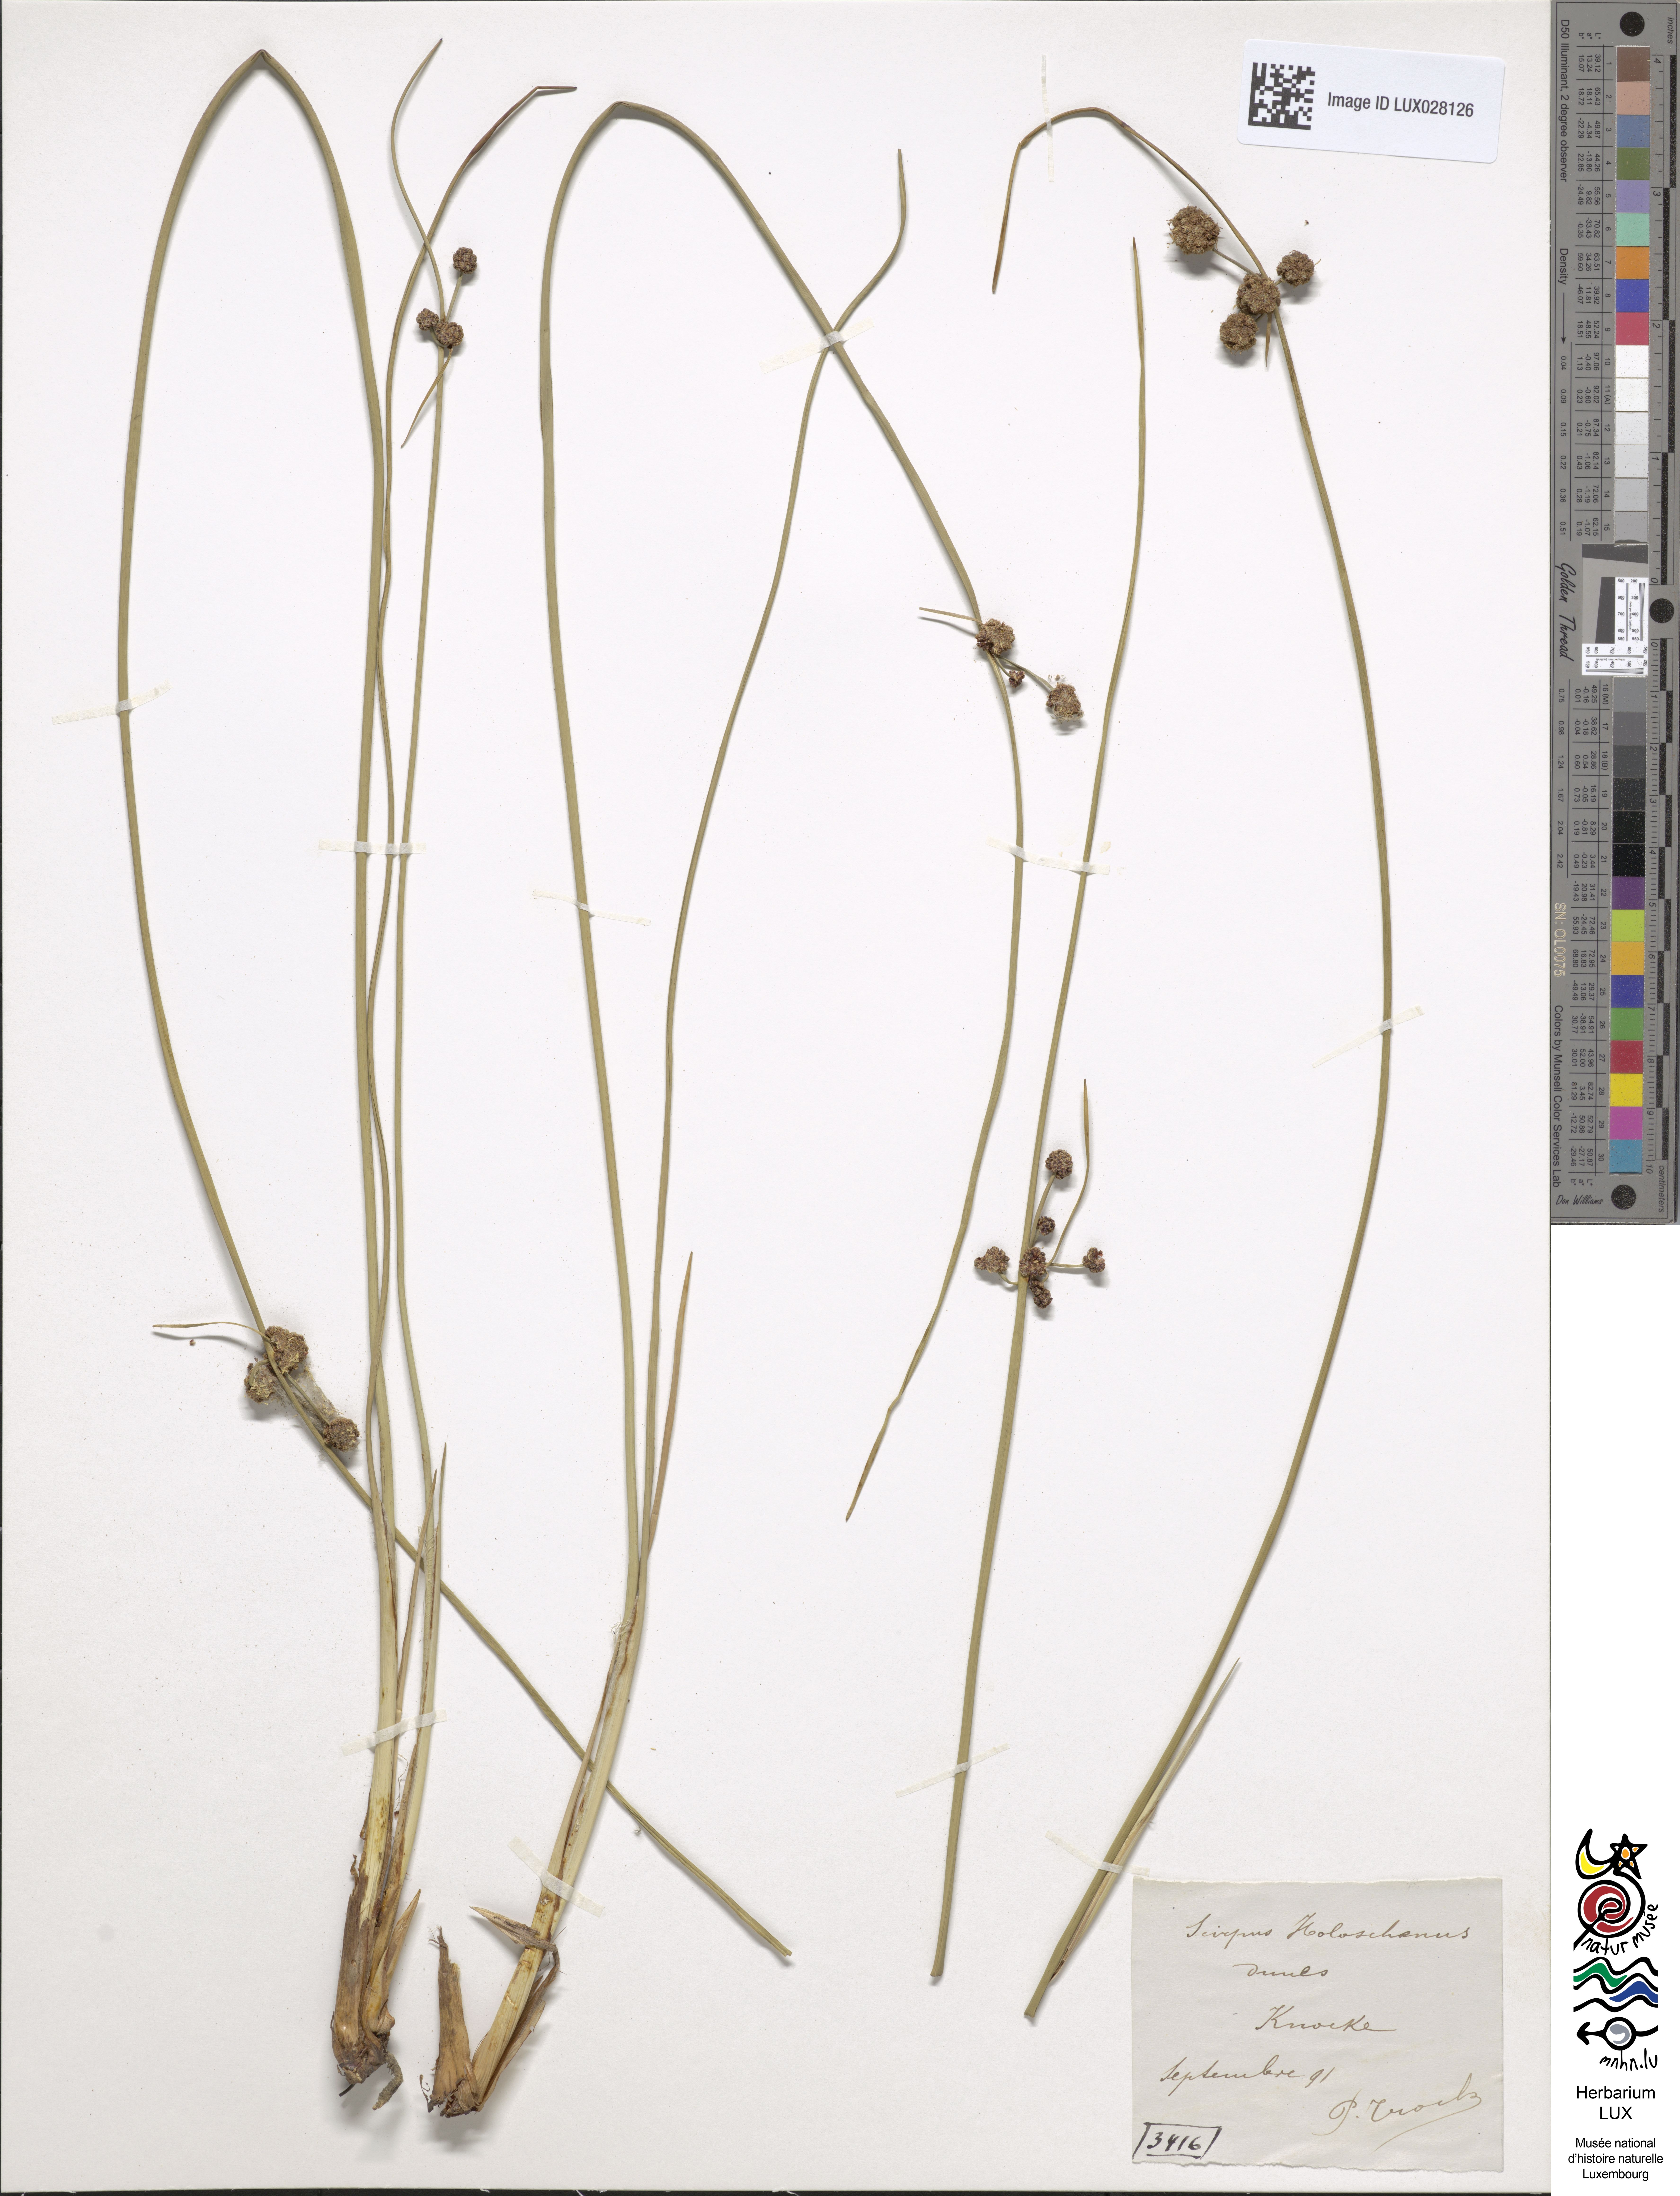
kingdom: Plantae
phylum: Tracheophyta
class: Liliopsida
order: Poales
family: Cyperaceae
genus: Scirpoides
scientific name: Scirpoides holoschoenus
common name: Round-headed club-rush
